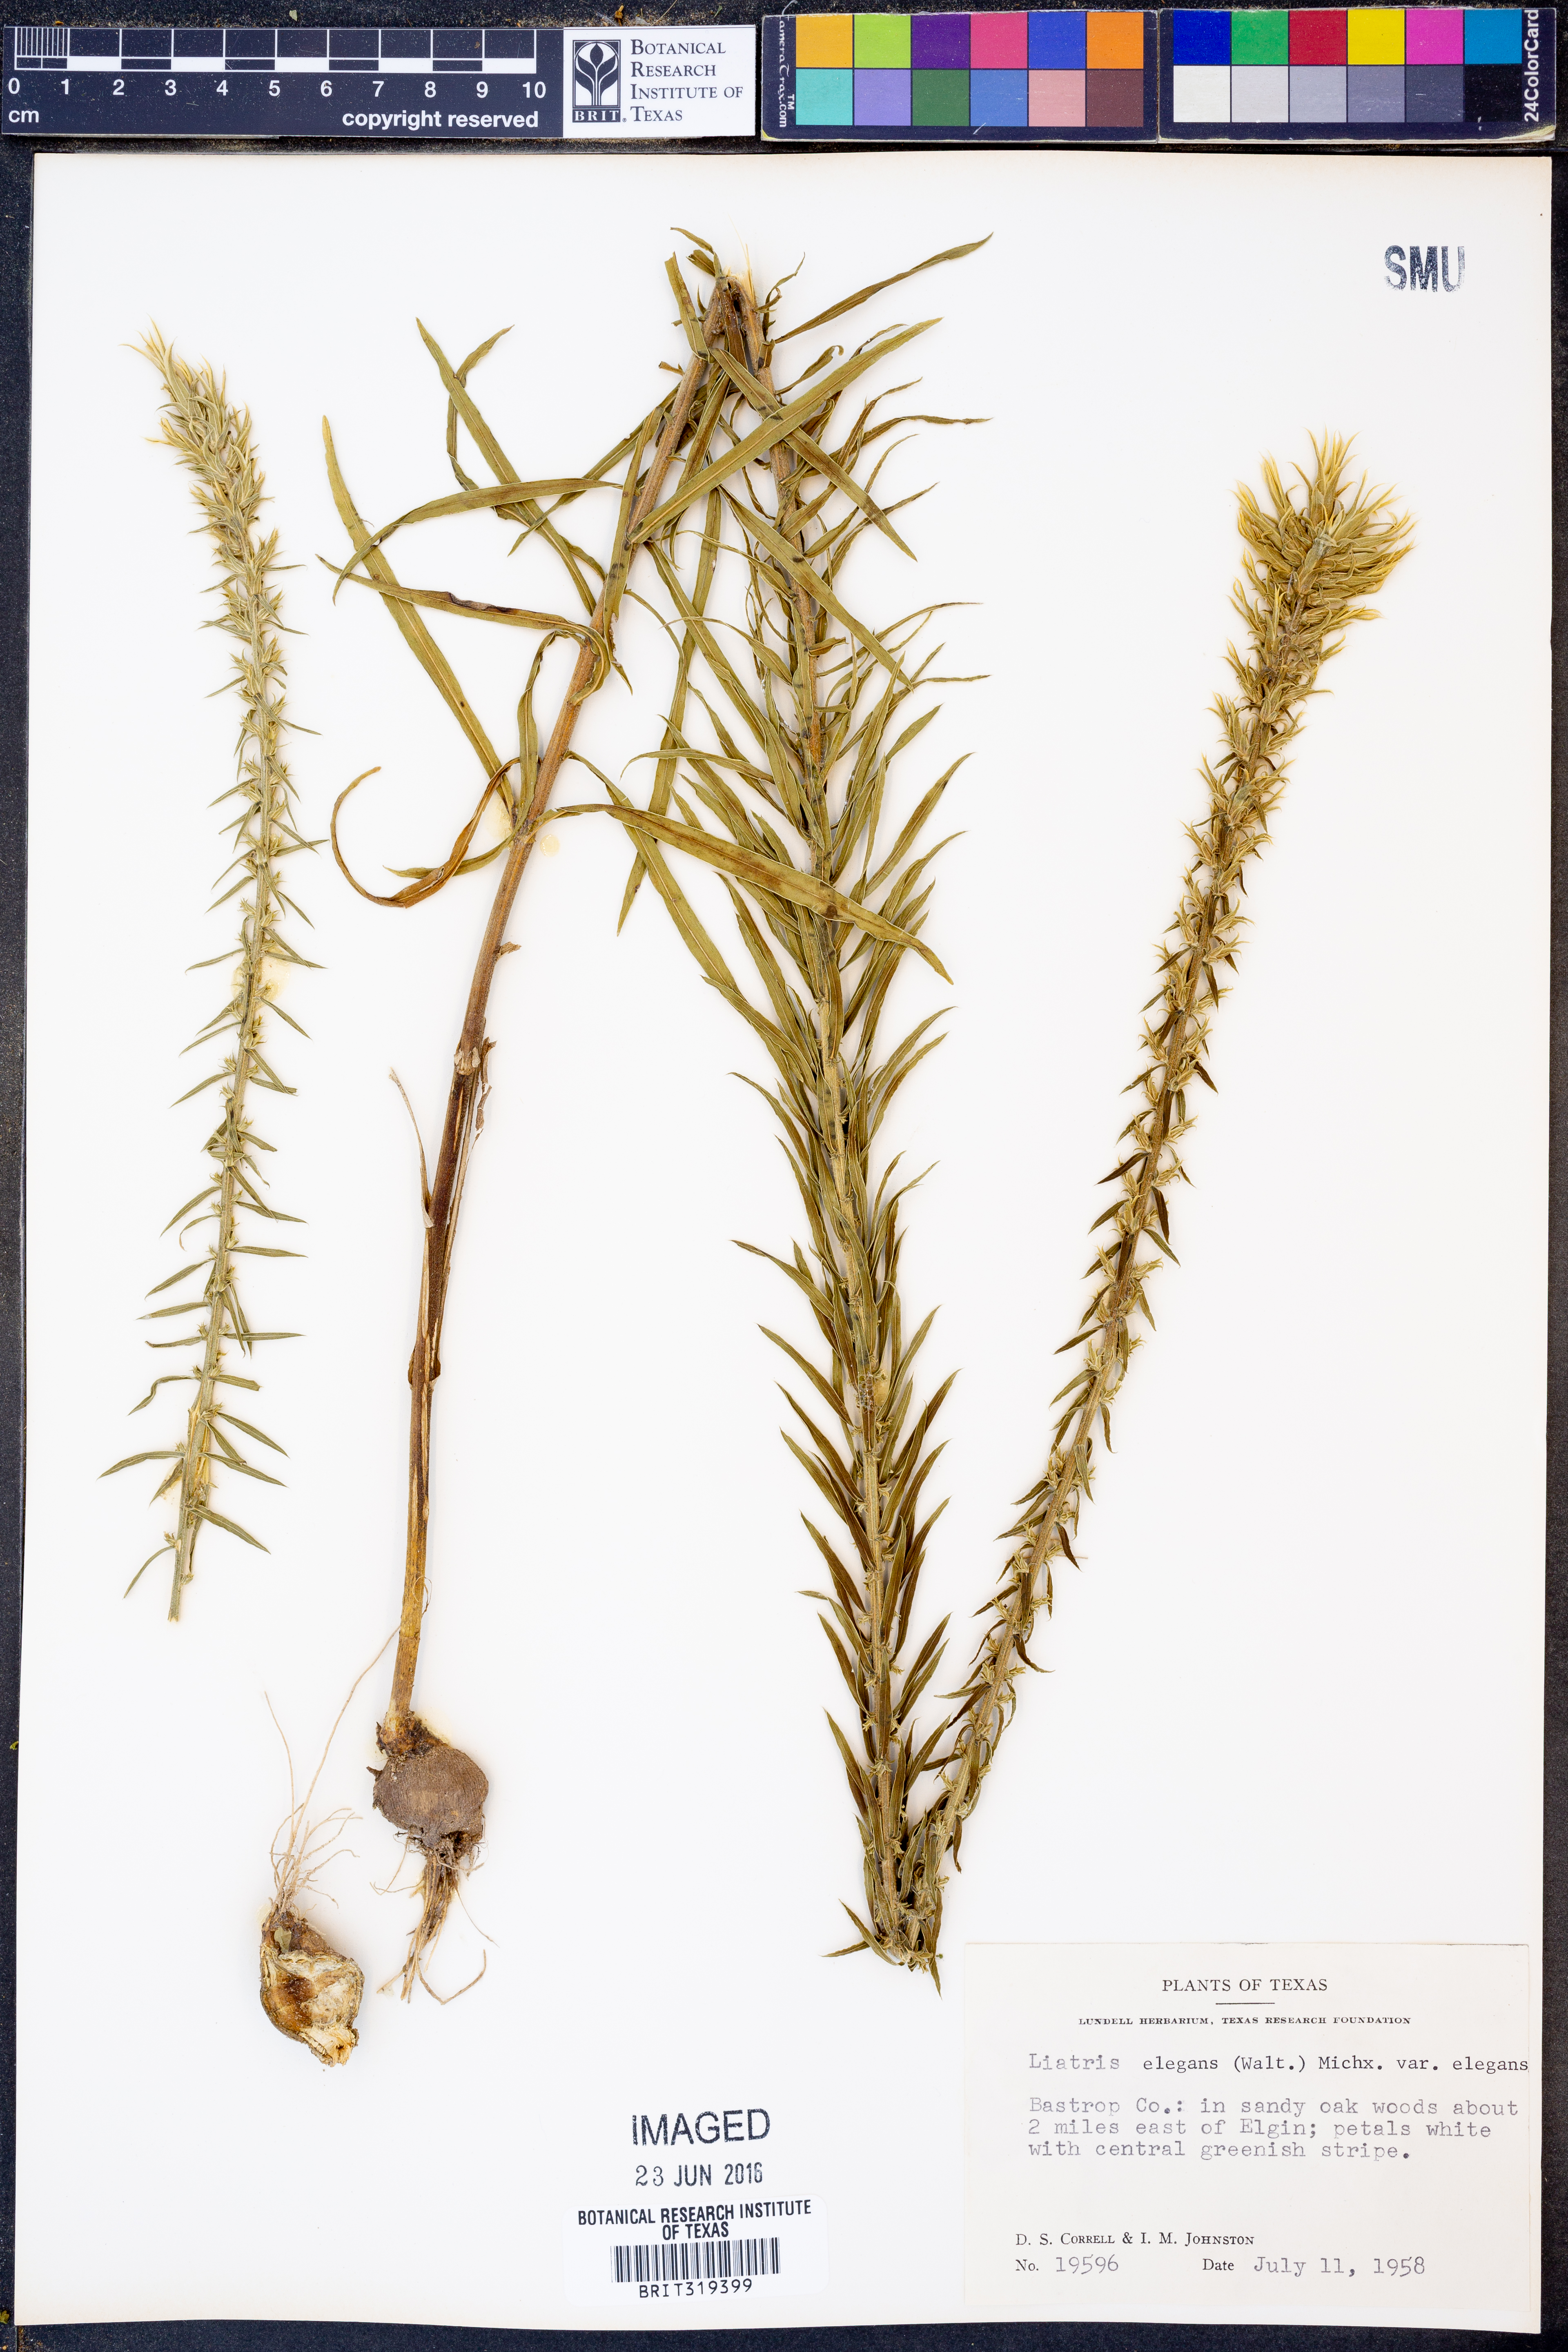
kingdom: Plantae
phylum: Tracheophyta
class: Magnoliopsida
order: Asterales
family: Asteraceae
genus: Liatris
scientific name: Liatris elegans
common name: Pinkscale gayfeather
